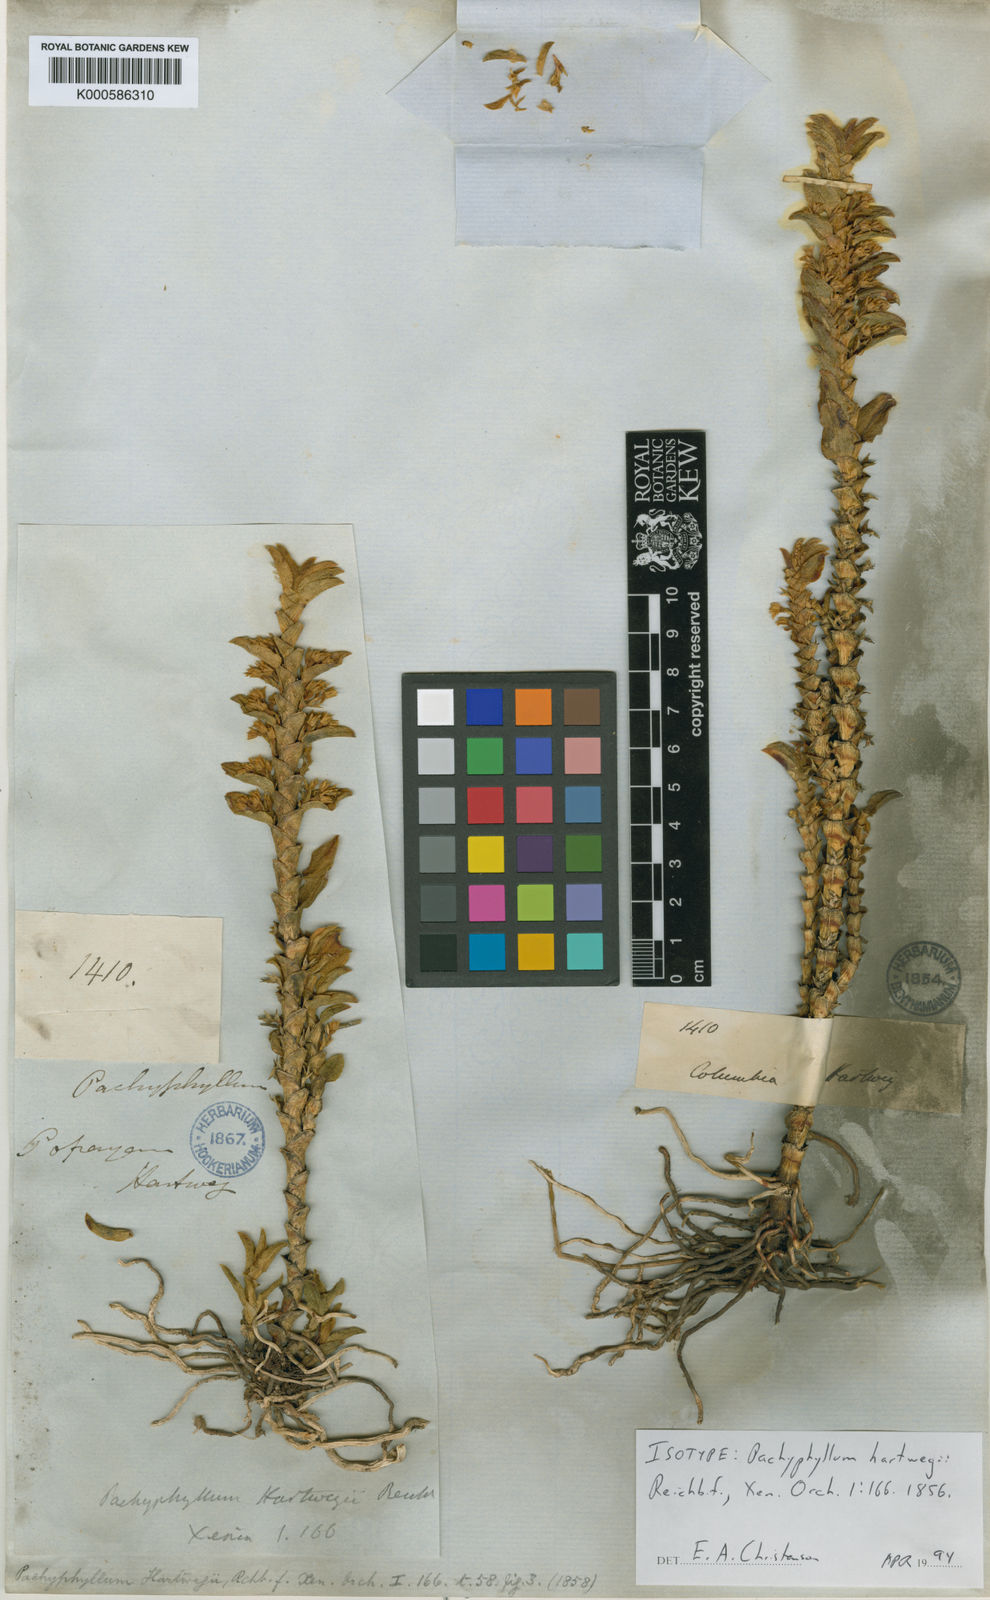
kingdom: Plantae
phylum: Tracheophyta
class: Liliopsida
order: Asparagales
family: Orchidaceae
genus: Fernandezia
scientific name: Fernandezia myrtillus
